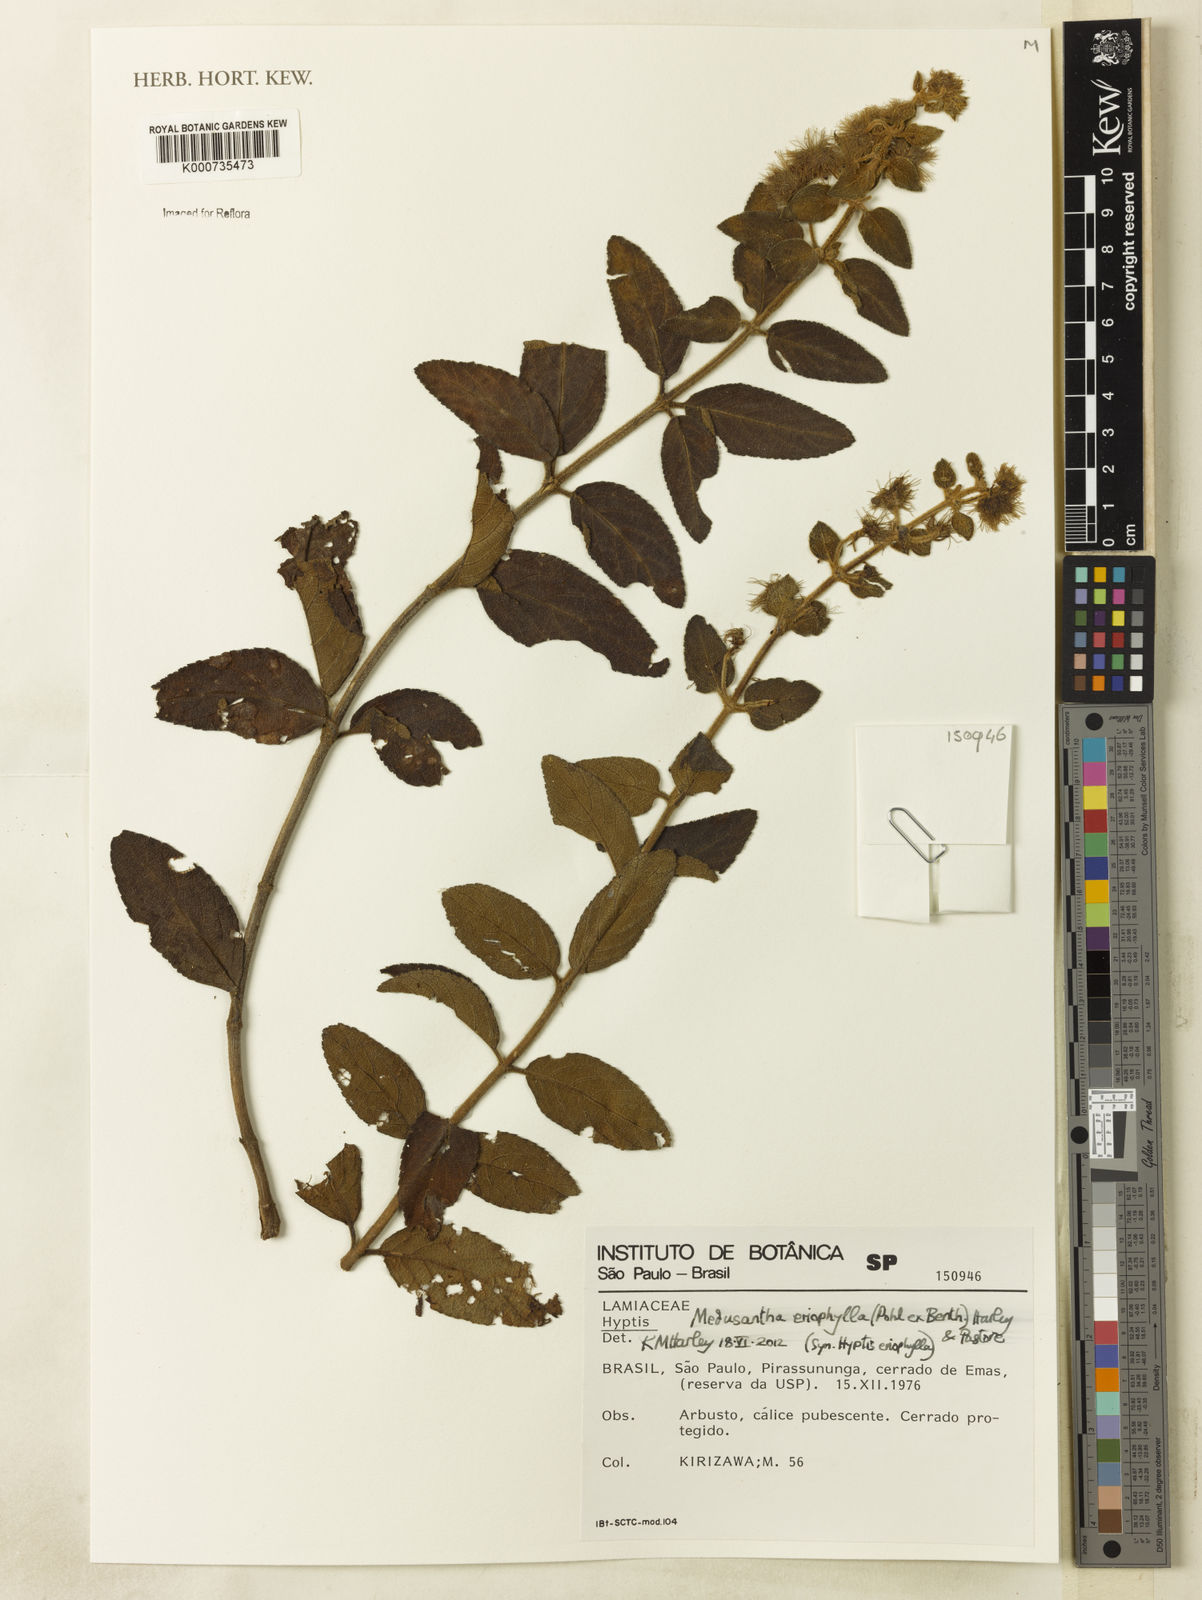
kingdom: Plantae
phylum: Tracheophyta
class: Magnoliopsida
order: Lamiales
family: Lamiaceae
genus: Medusantha
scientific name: Medusantha eriophylla
